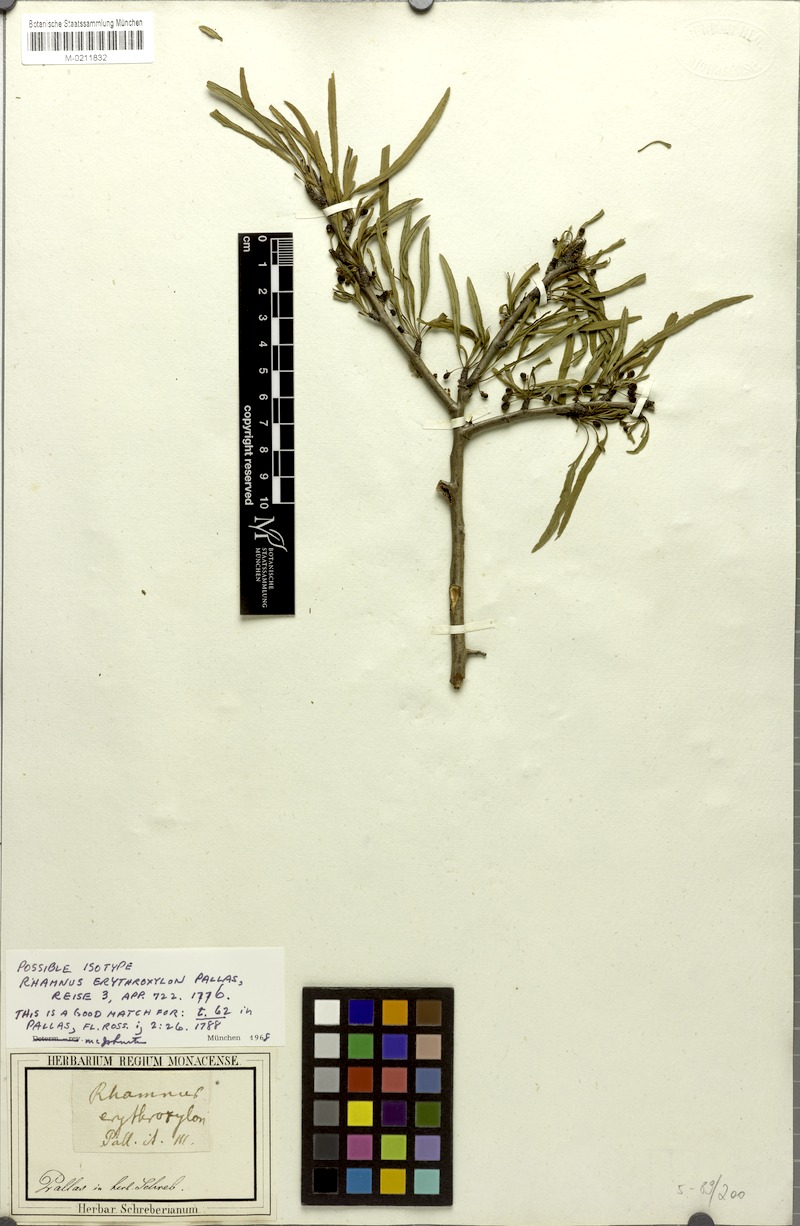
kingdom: Plantae
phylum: Tracheophyta
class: Magnoliopsida
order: Rosales
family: Rhamnaceae
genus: Rhamnus
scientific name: Rhamnus erythroxyloides
